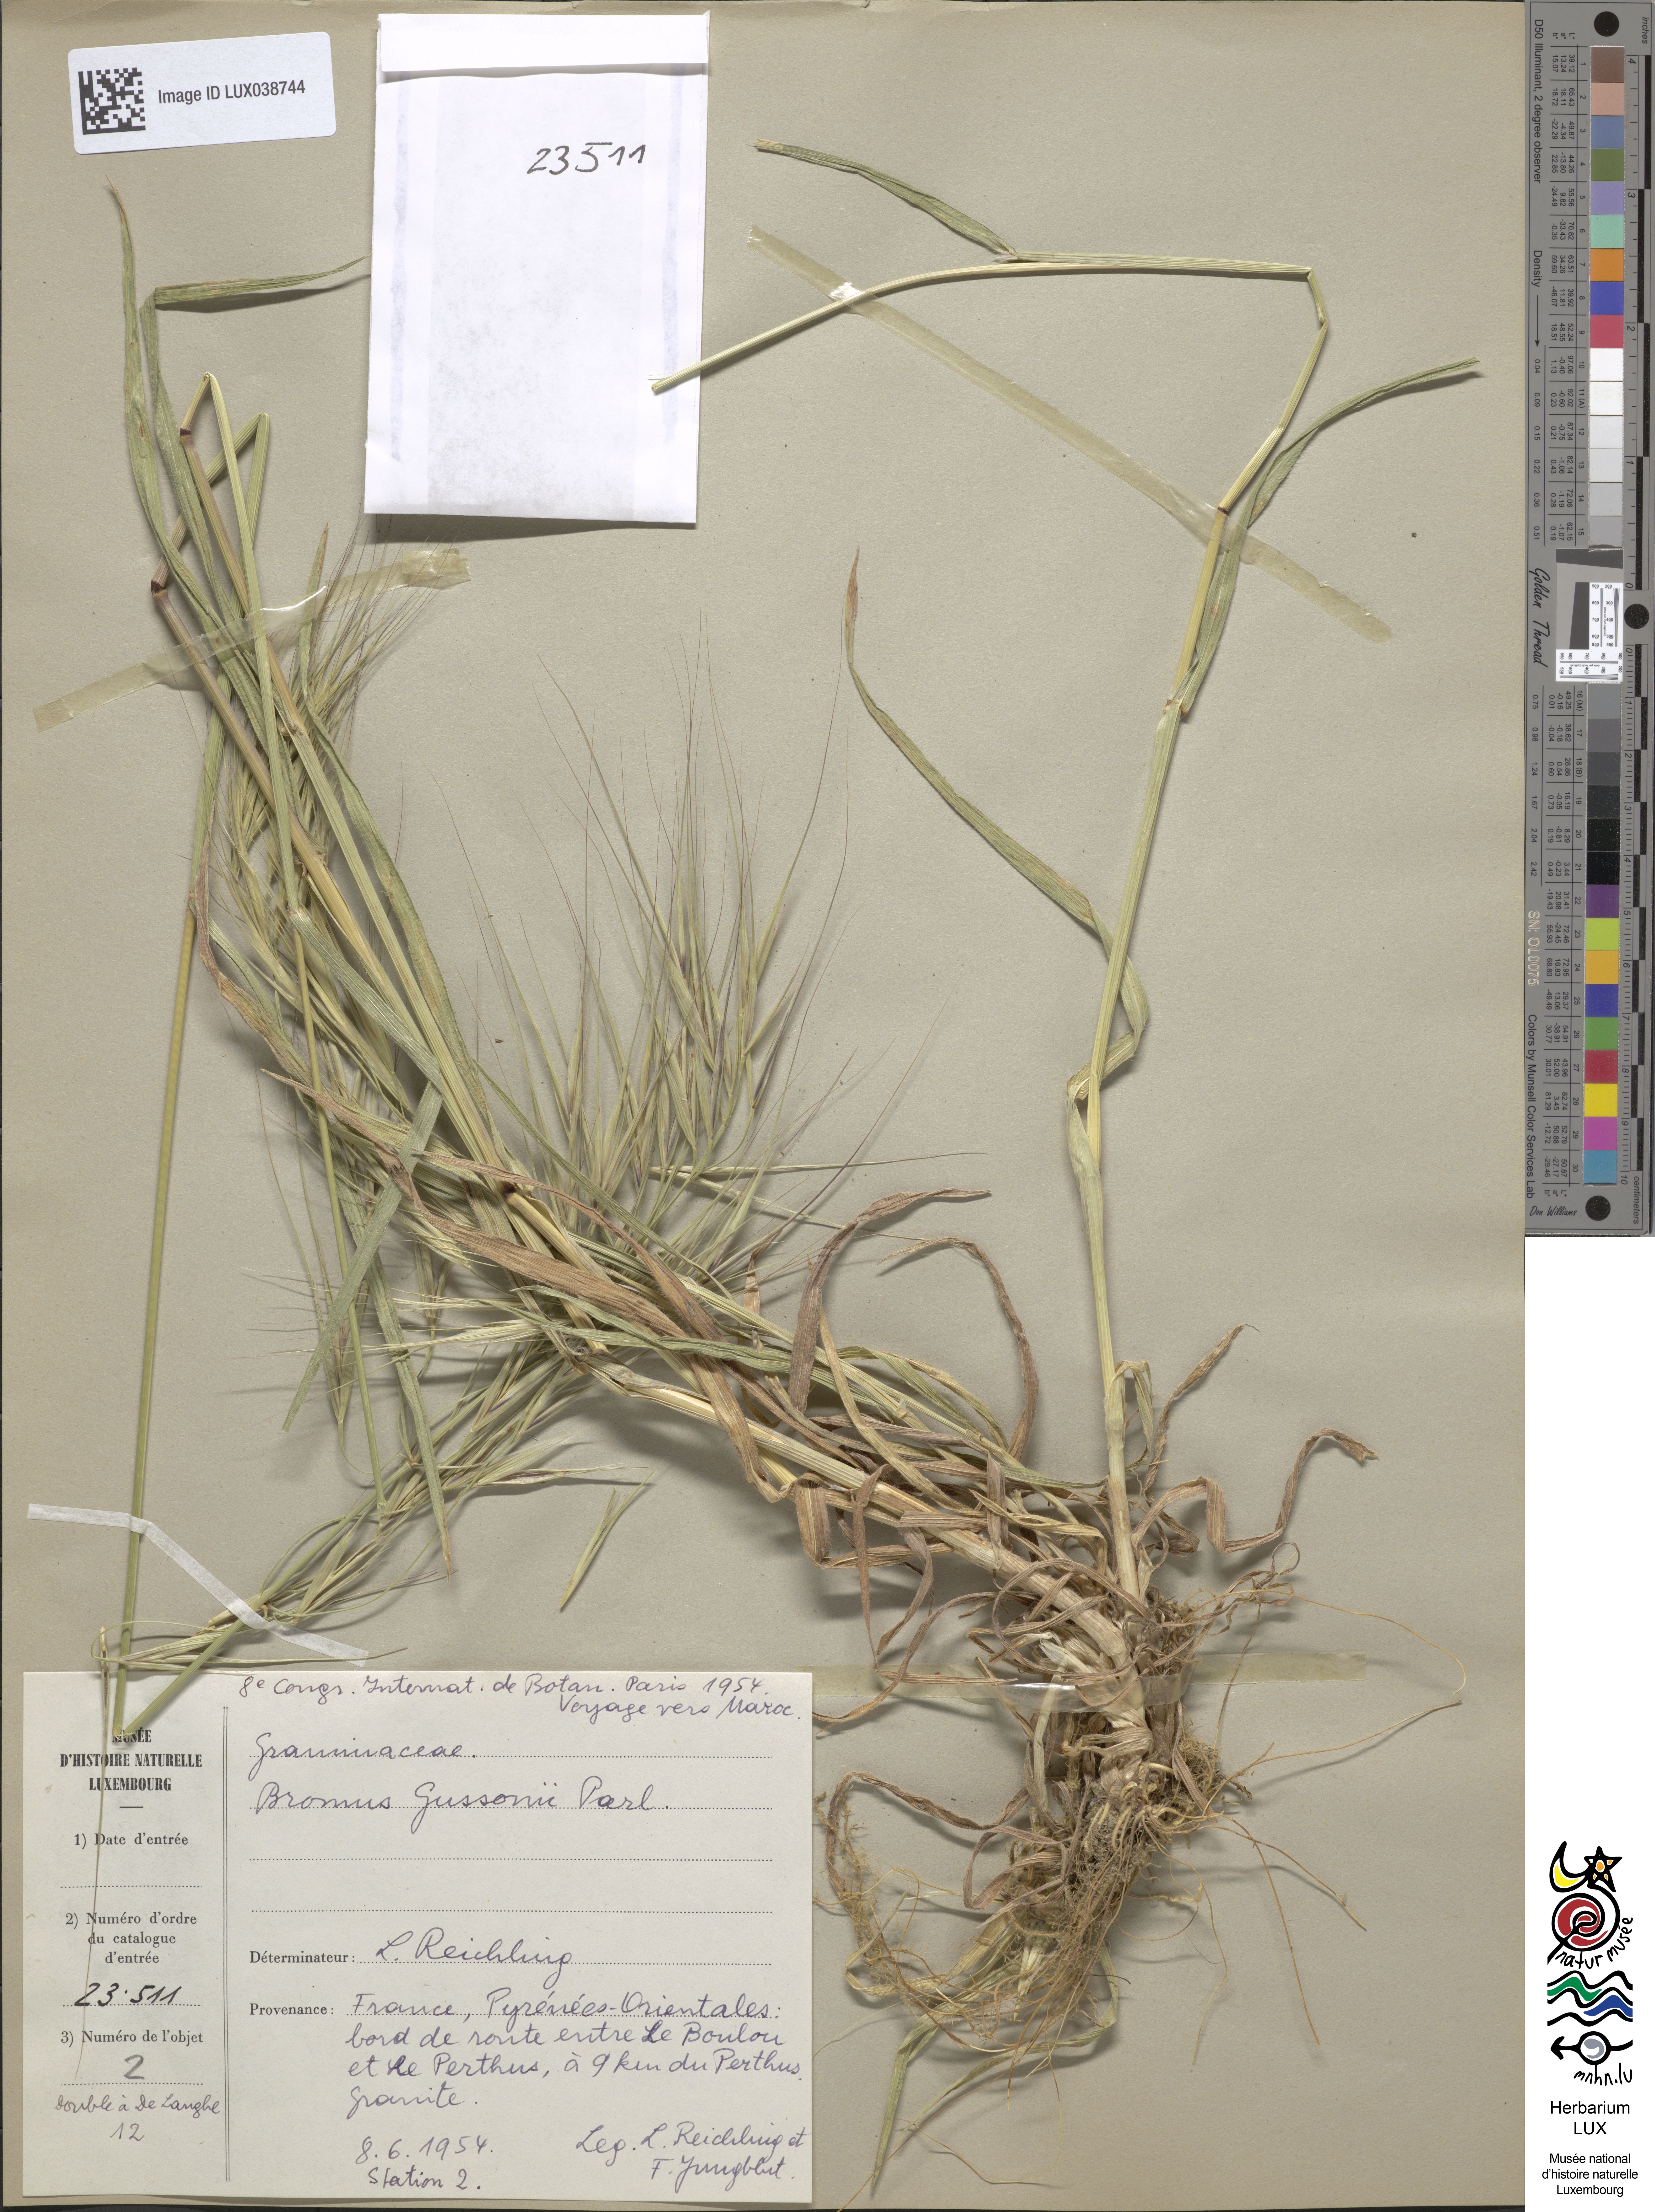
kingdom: Plantae
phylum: Tracheophyta
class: Liliopsida
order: Poales
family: Poaceae
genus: Bromus
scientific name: Bromus diandrus
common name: Ripgut brome
